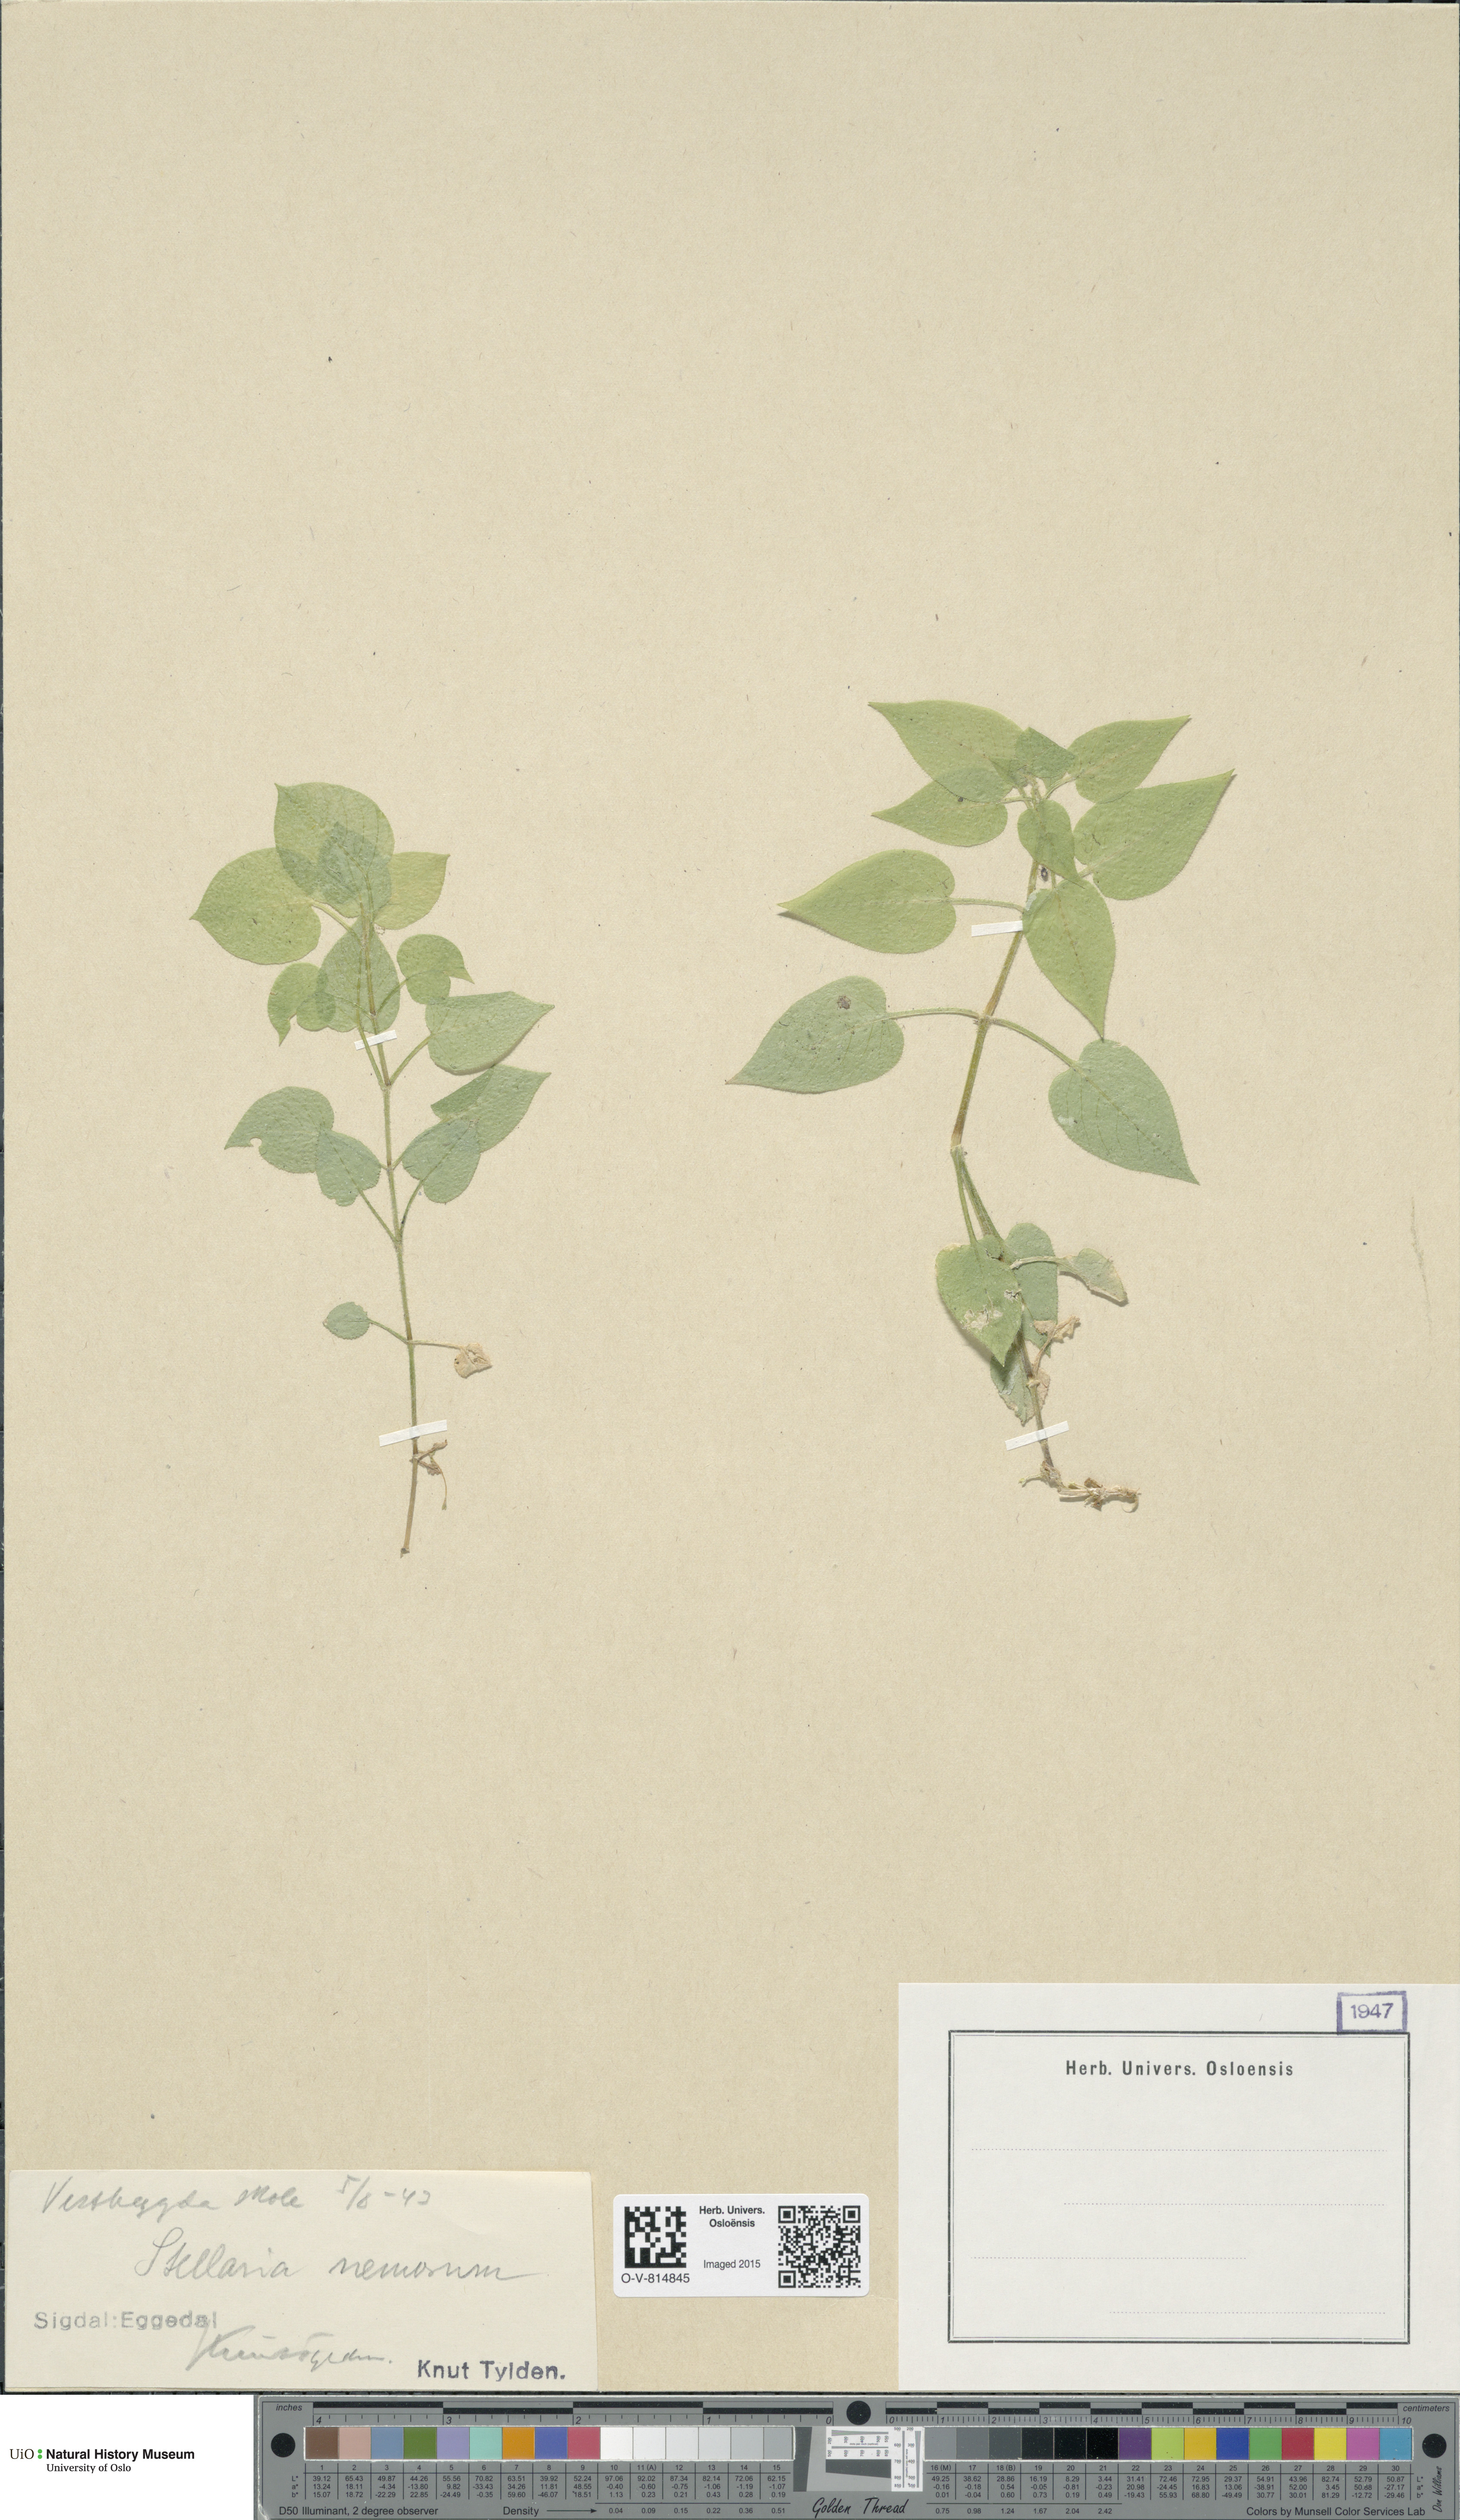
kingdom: Plantae
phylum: Tracheophyta
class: Magnoliopsida
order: Caryophyllales
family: Caryophyllaceae
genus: Stellaria
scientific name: Stellaria nemorum
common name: Wood stitchwort
